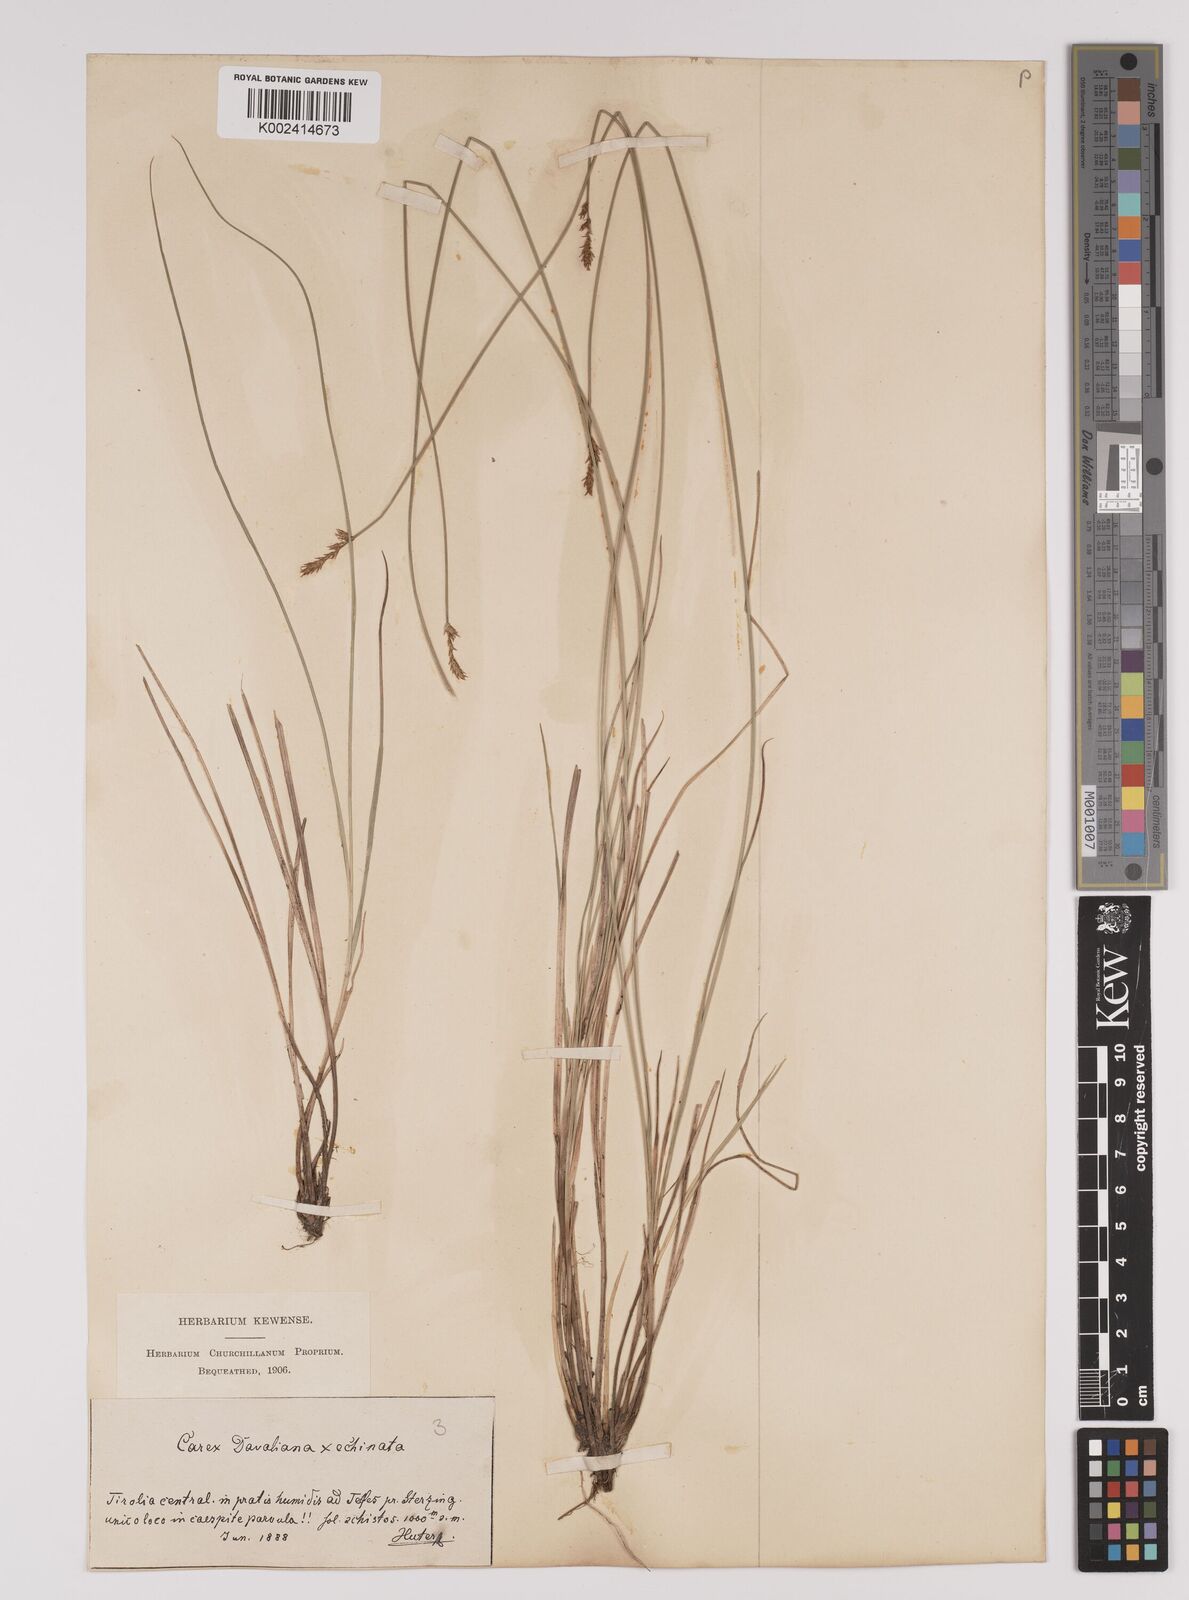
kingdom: Plantae
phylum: Tracheophyta
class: Liliopsida
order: Poales
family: Cyperaceae
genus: Carex
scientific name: Carex davalliana
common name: Davall's sedge
